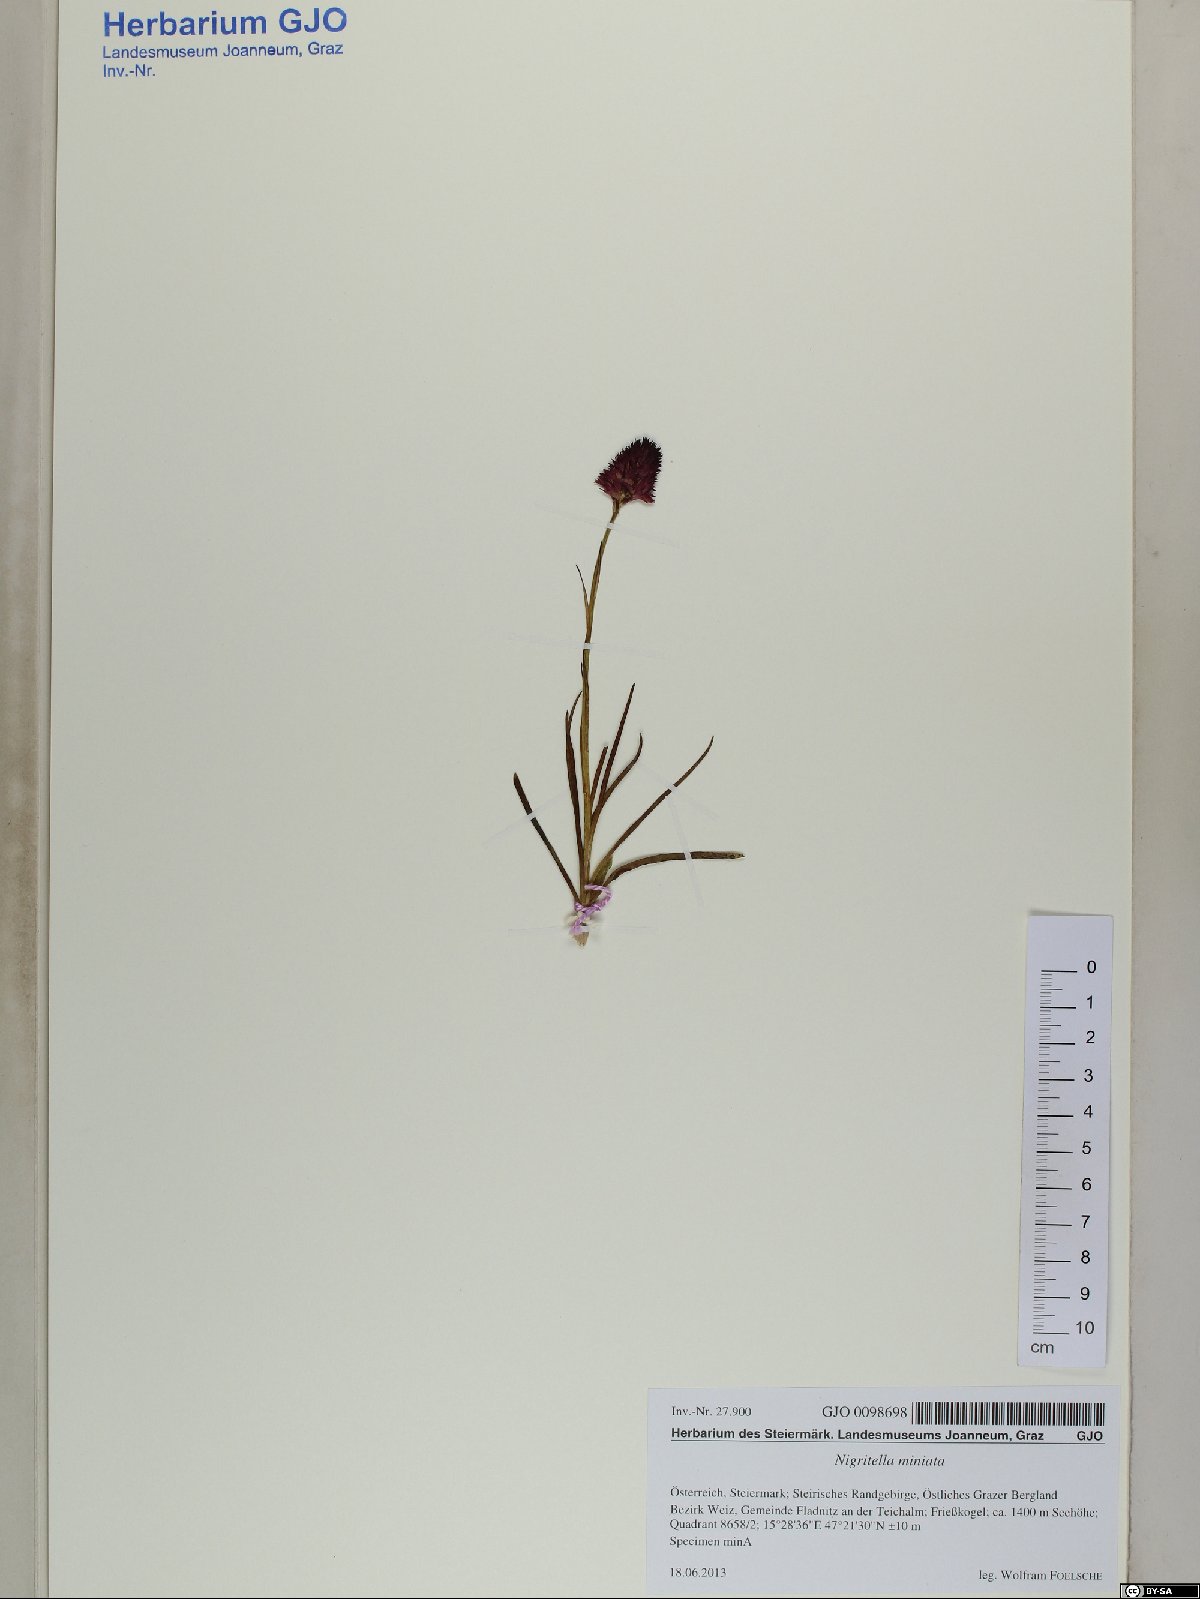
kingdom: Plantae
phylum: Tracheophyta
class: Liliopsida
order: Asparagales
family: Orchidaceae
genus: Gymnadenia
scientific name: Gymnadenia miniata
